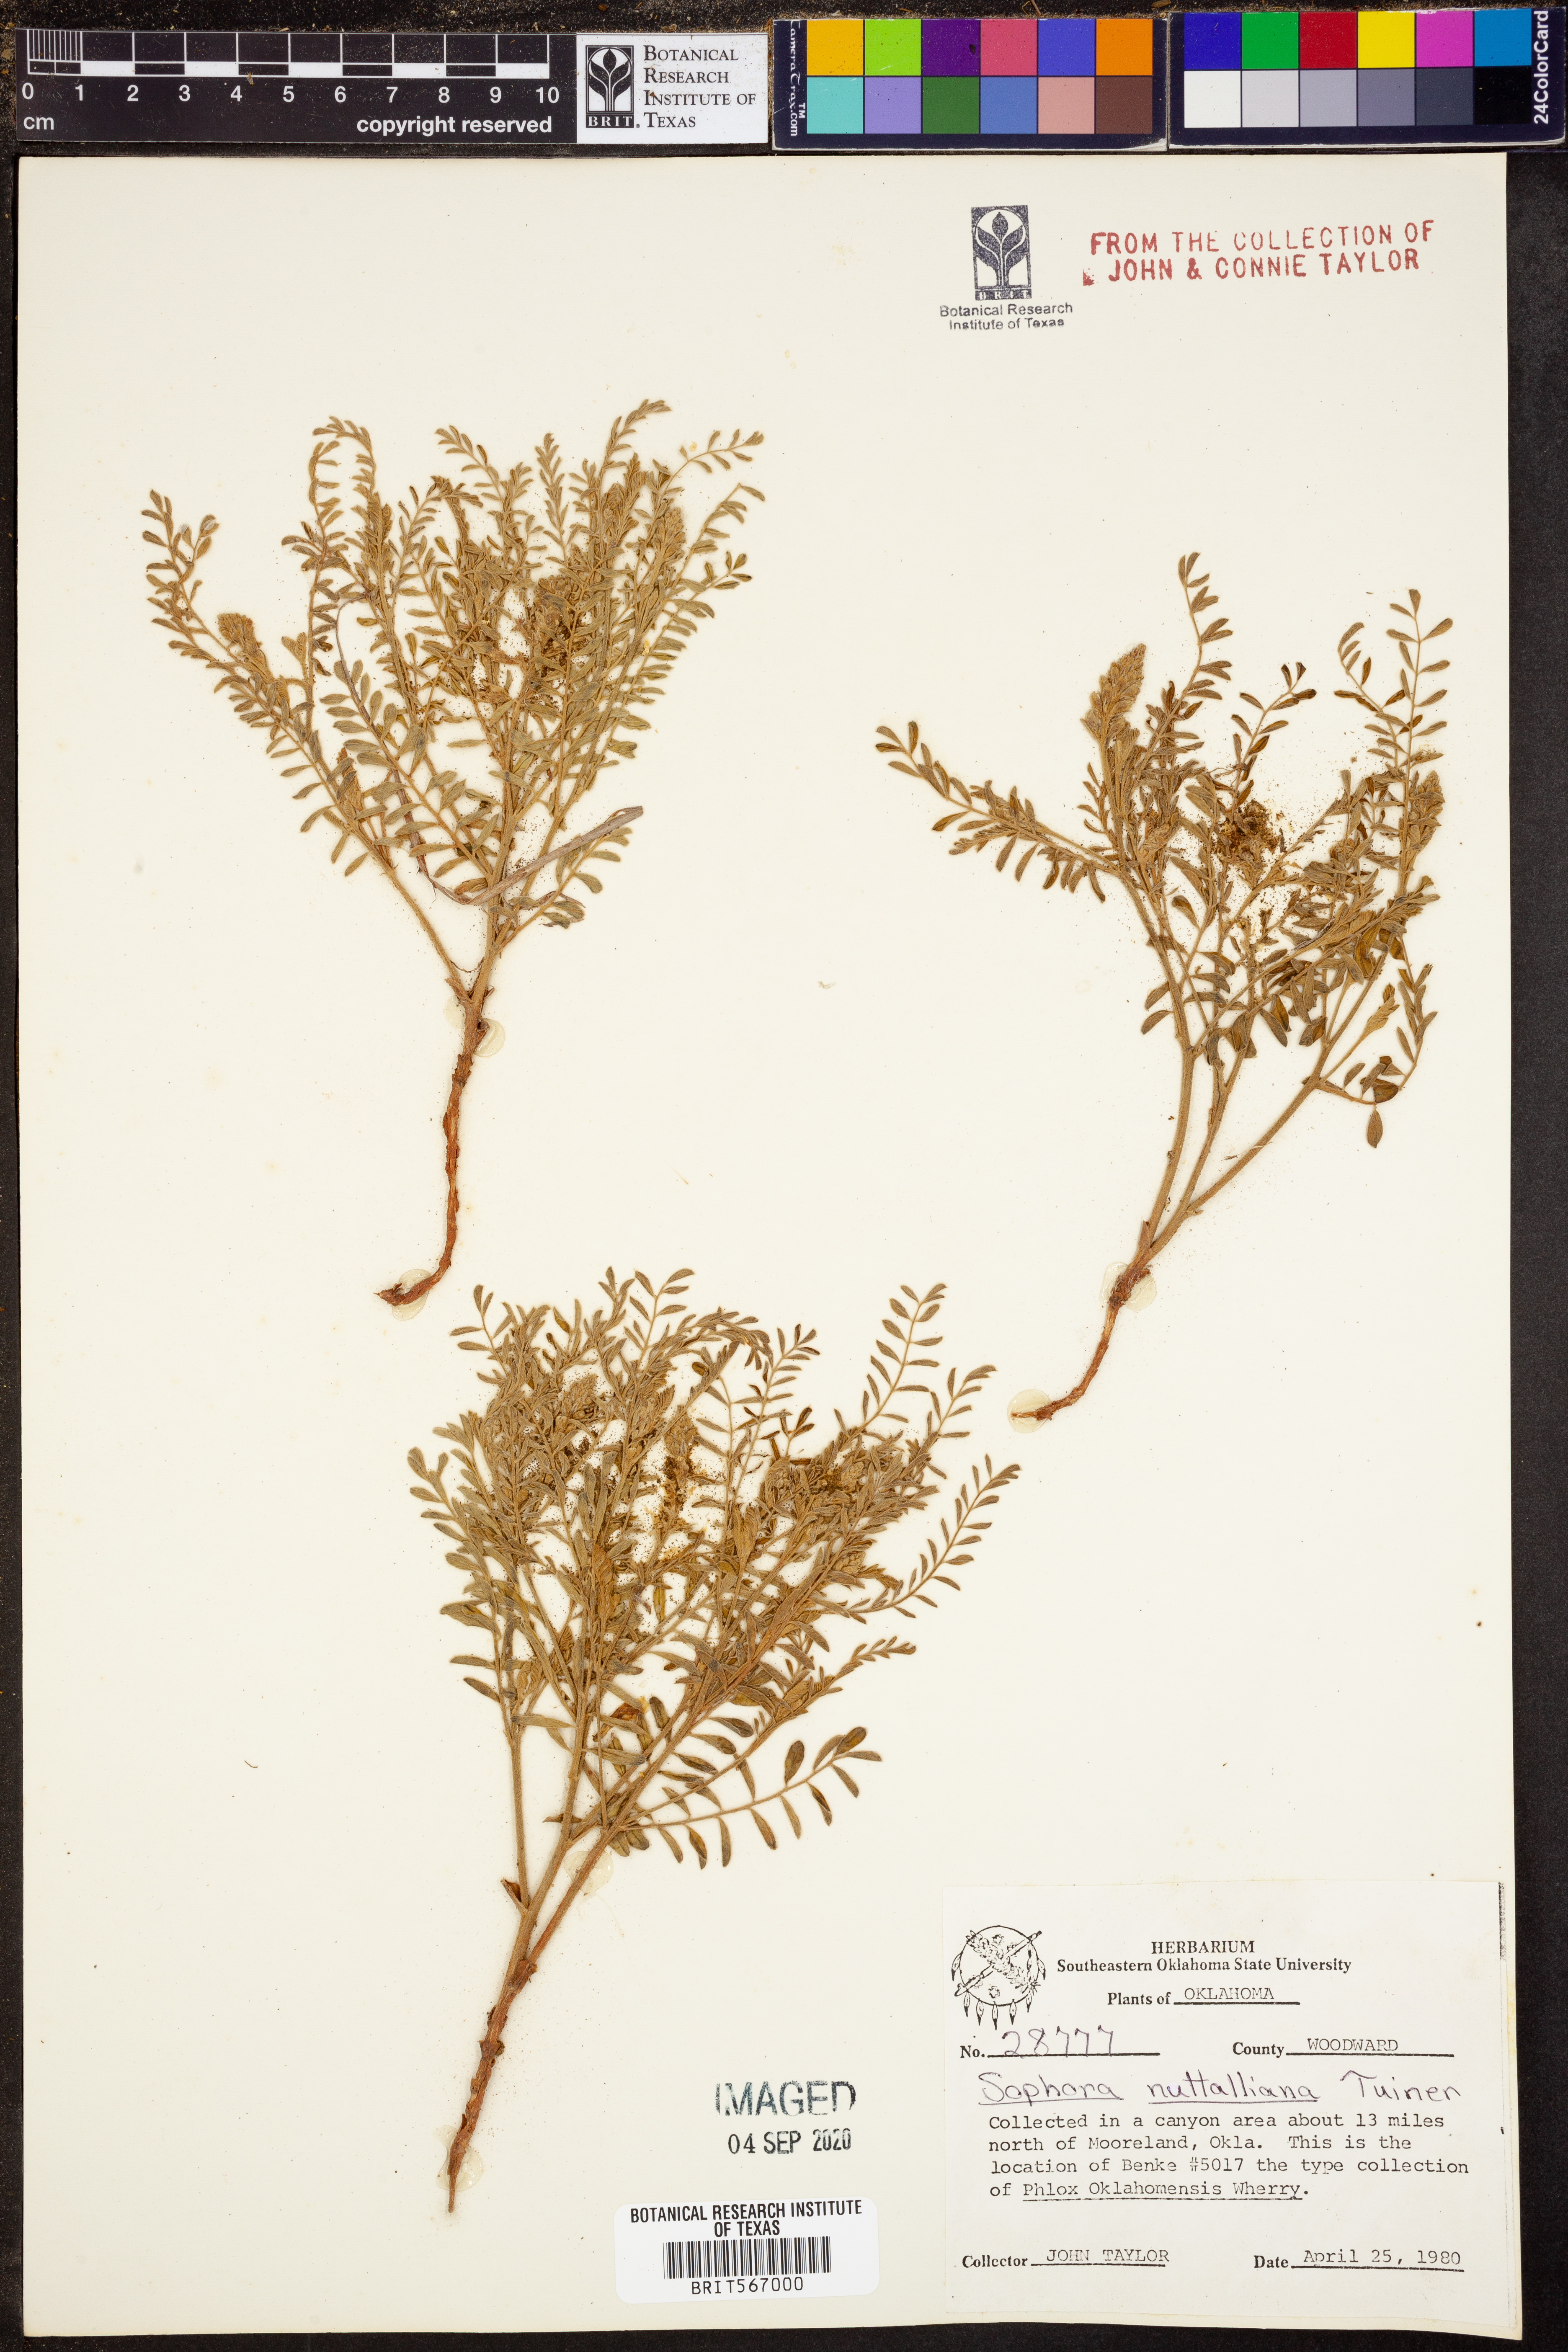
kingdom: Plantae
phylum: Tracheophyta
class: Magnoliopsida
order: Fabales
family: Fabaceae
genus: Sophora
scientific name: Sophora nuttalliana
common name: Silky sophora
